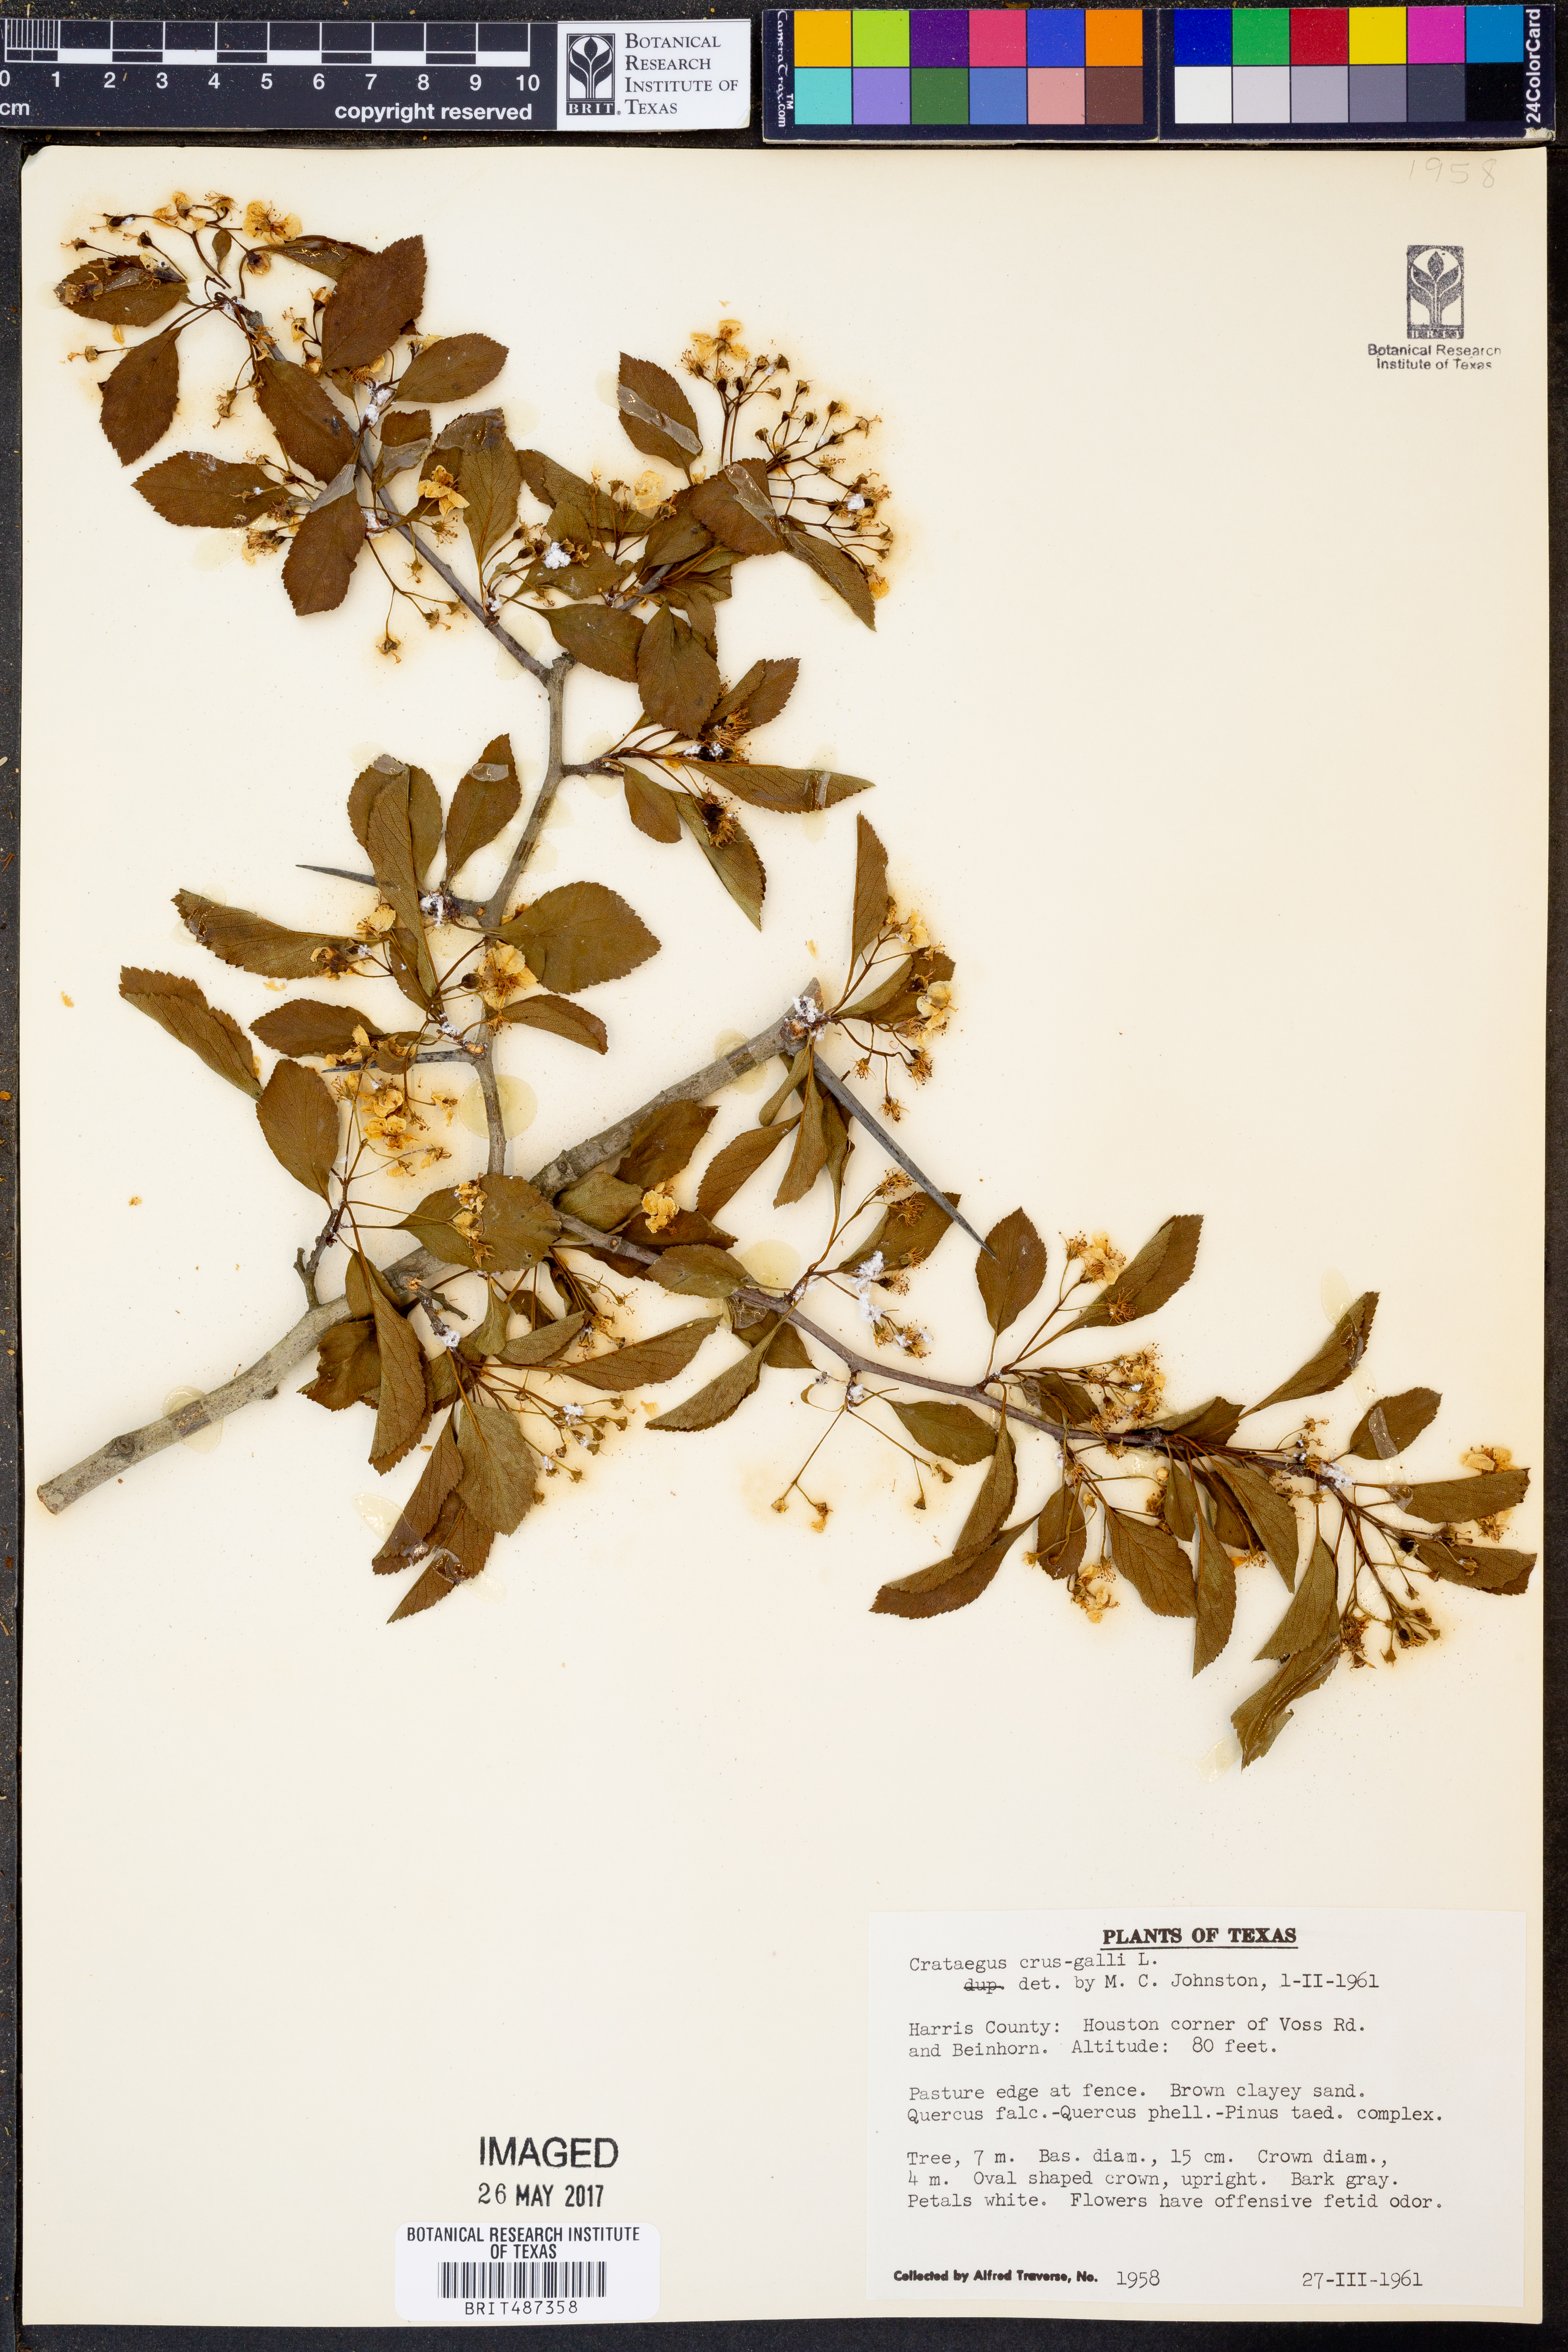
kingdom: Plantae
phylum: Tracheophyta
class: Magnoliopsida
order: Rosales
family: Rosaceae
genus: Crataegus
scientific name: Crataegus crus-galli
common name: Cockspurthorn
